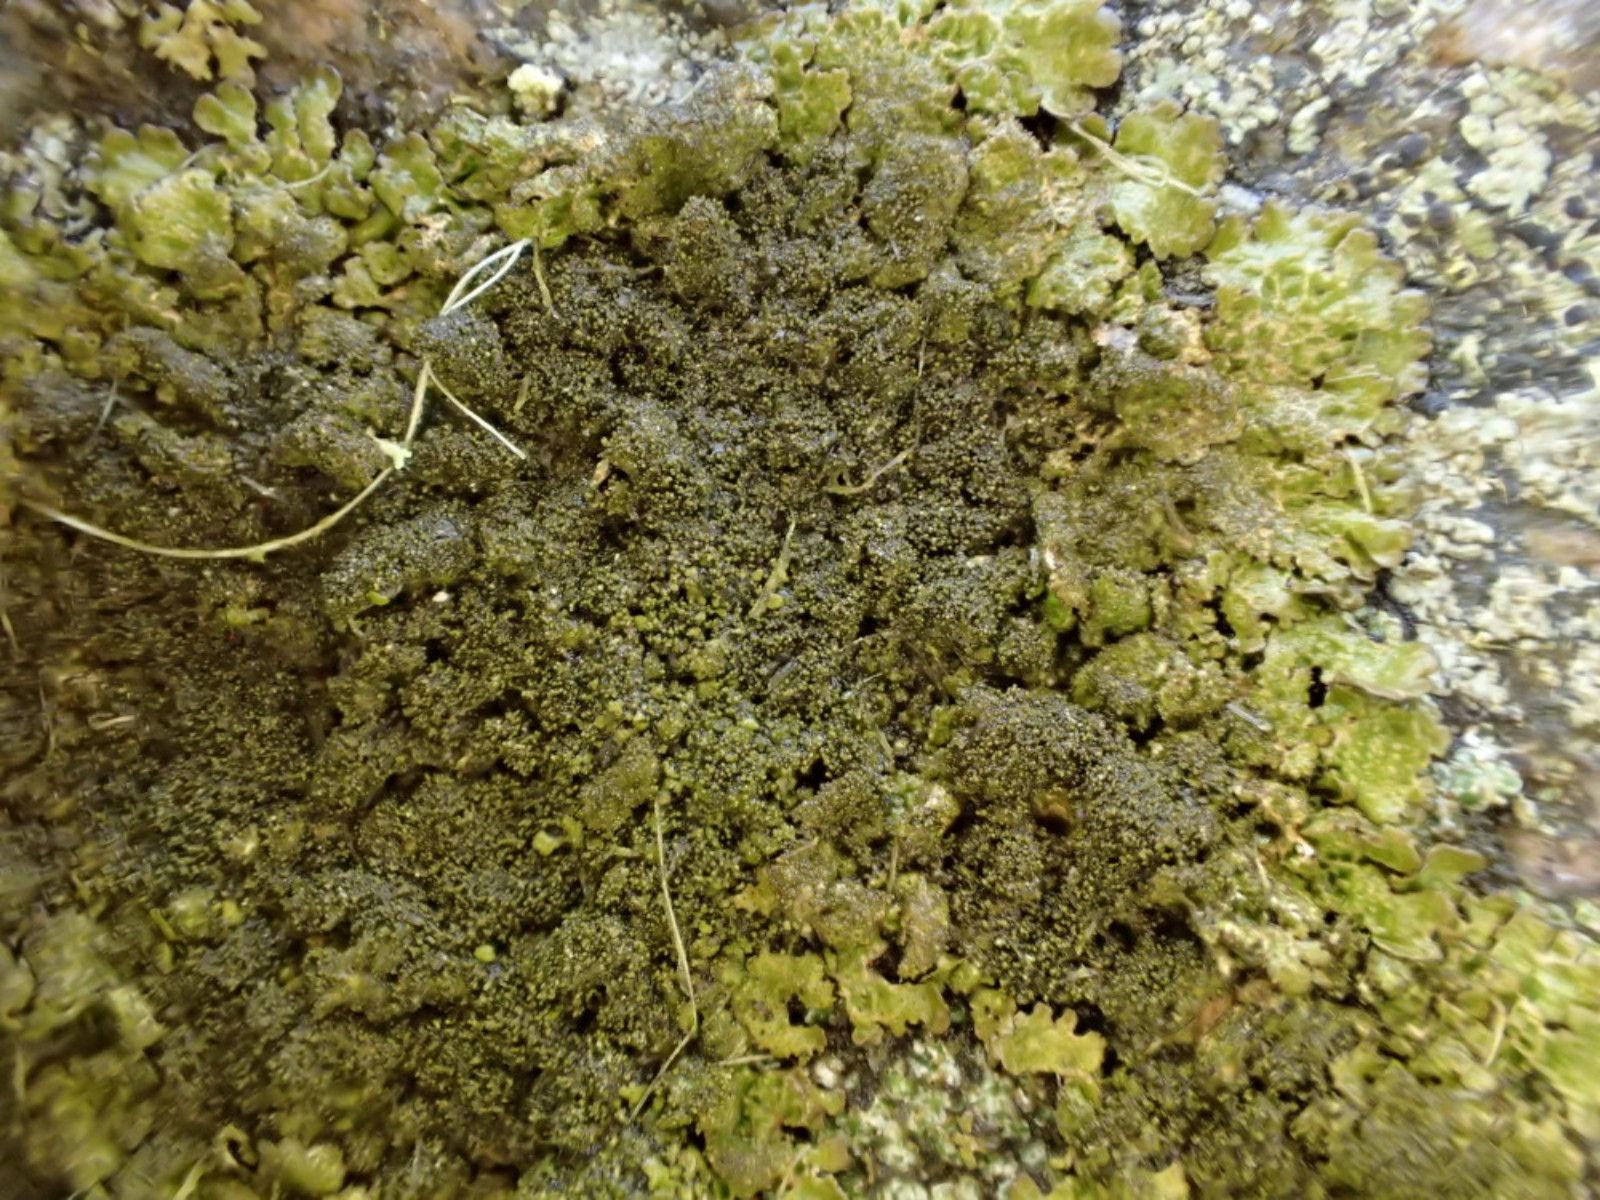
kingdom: Fungi
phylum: Ascomycota
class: Lecanoromycetes
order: Lecanorales
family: Parmeliaceae
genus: Melanelixia
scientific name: Melanelixia fuliginosa
